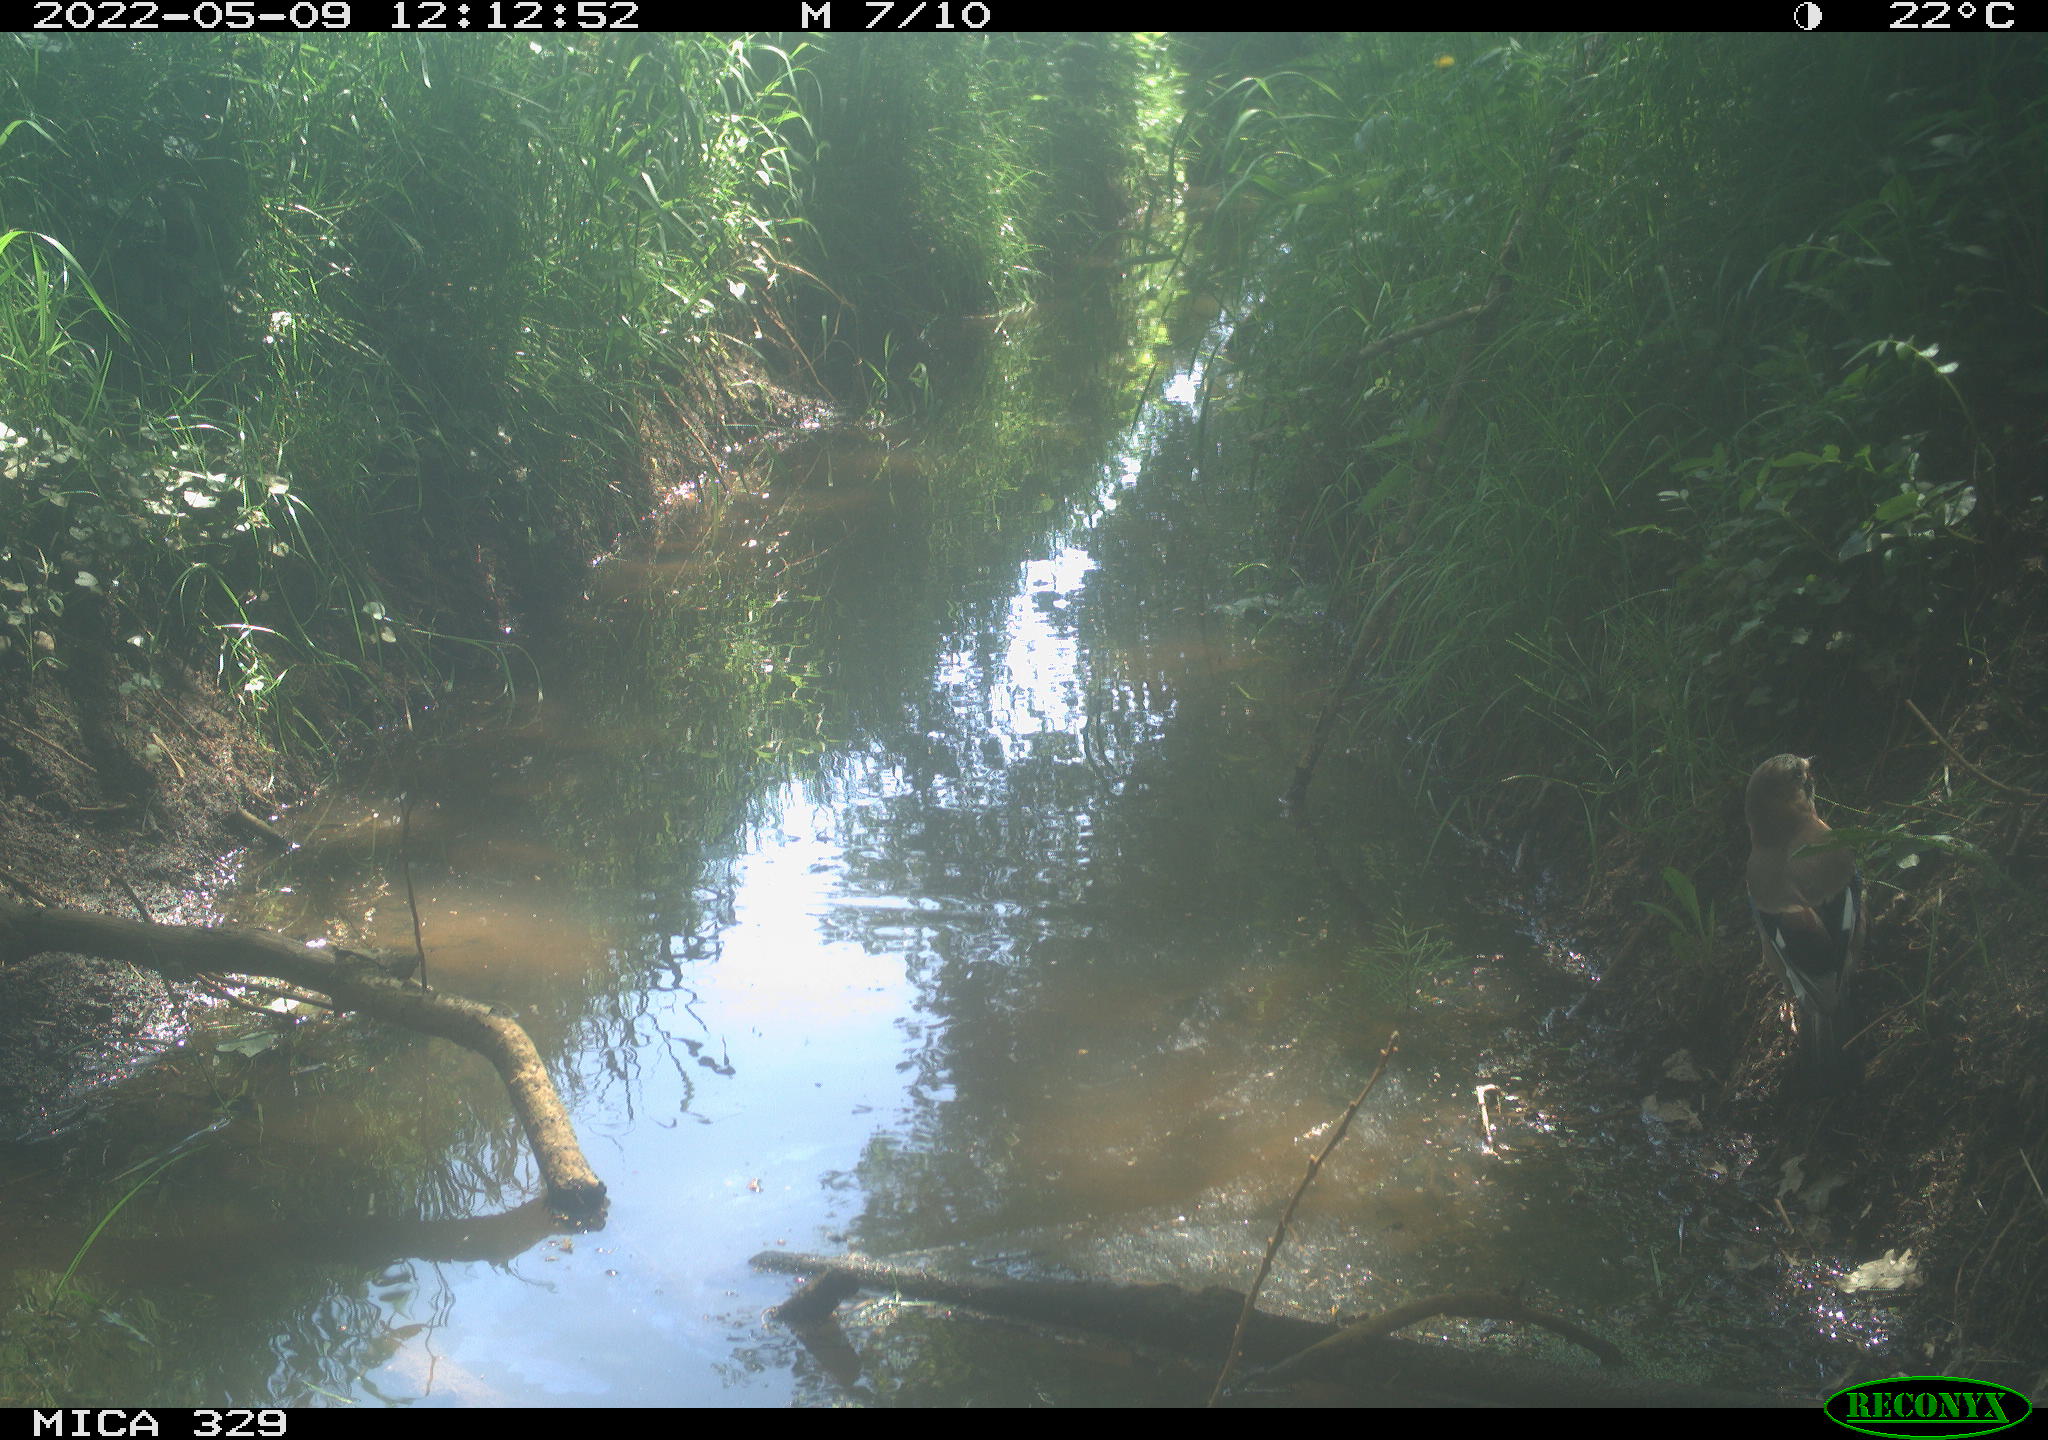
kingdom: Animalia
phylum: Chordata
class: Aves
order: Passeriformes
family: Corvidae
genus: Garrulus
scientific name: Garrulus glandarius
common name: Eurasian jay
